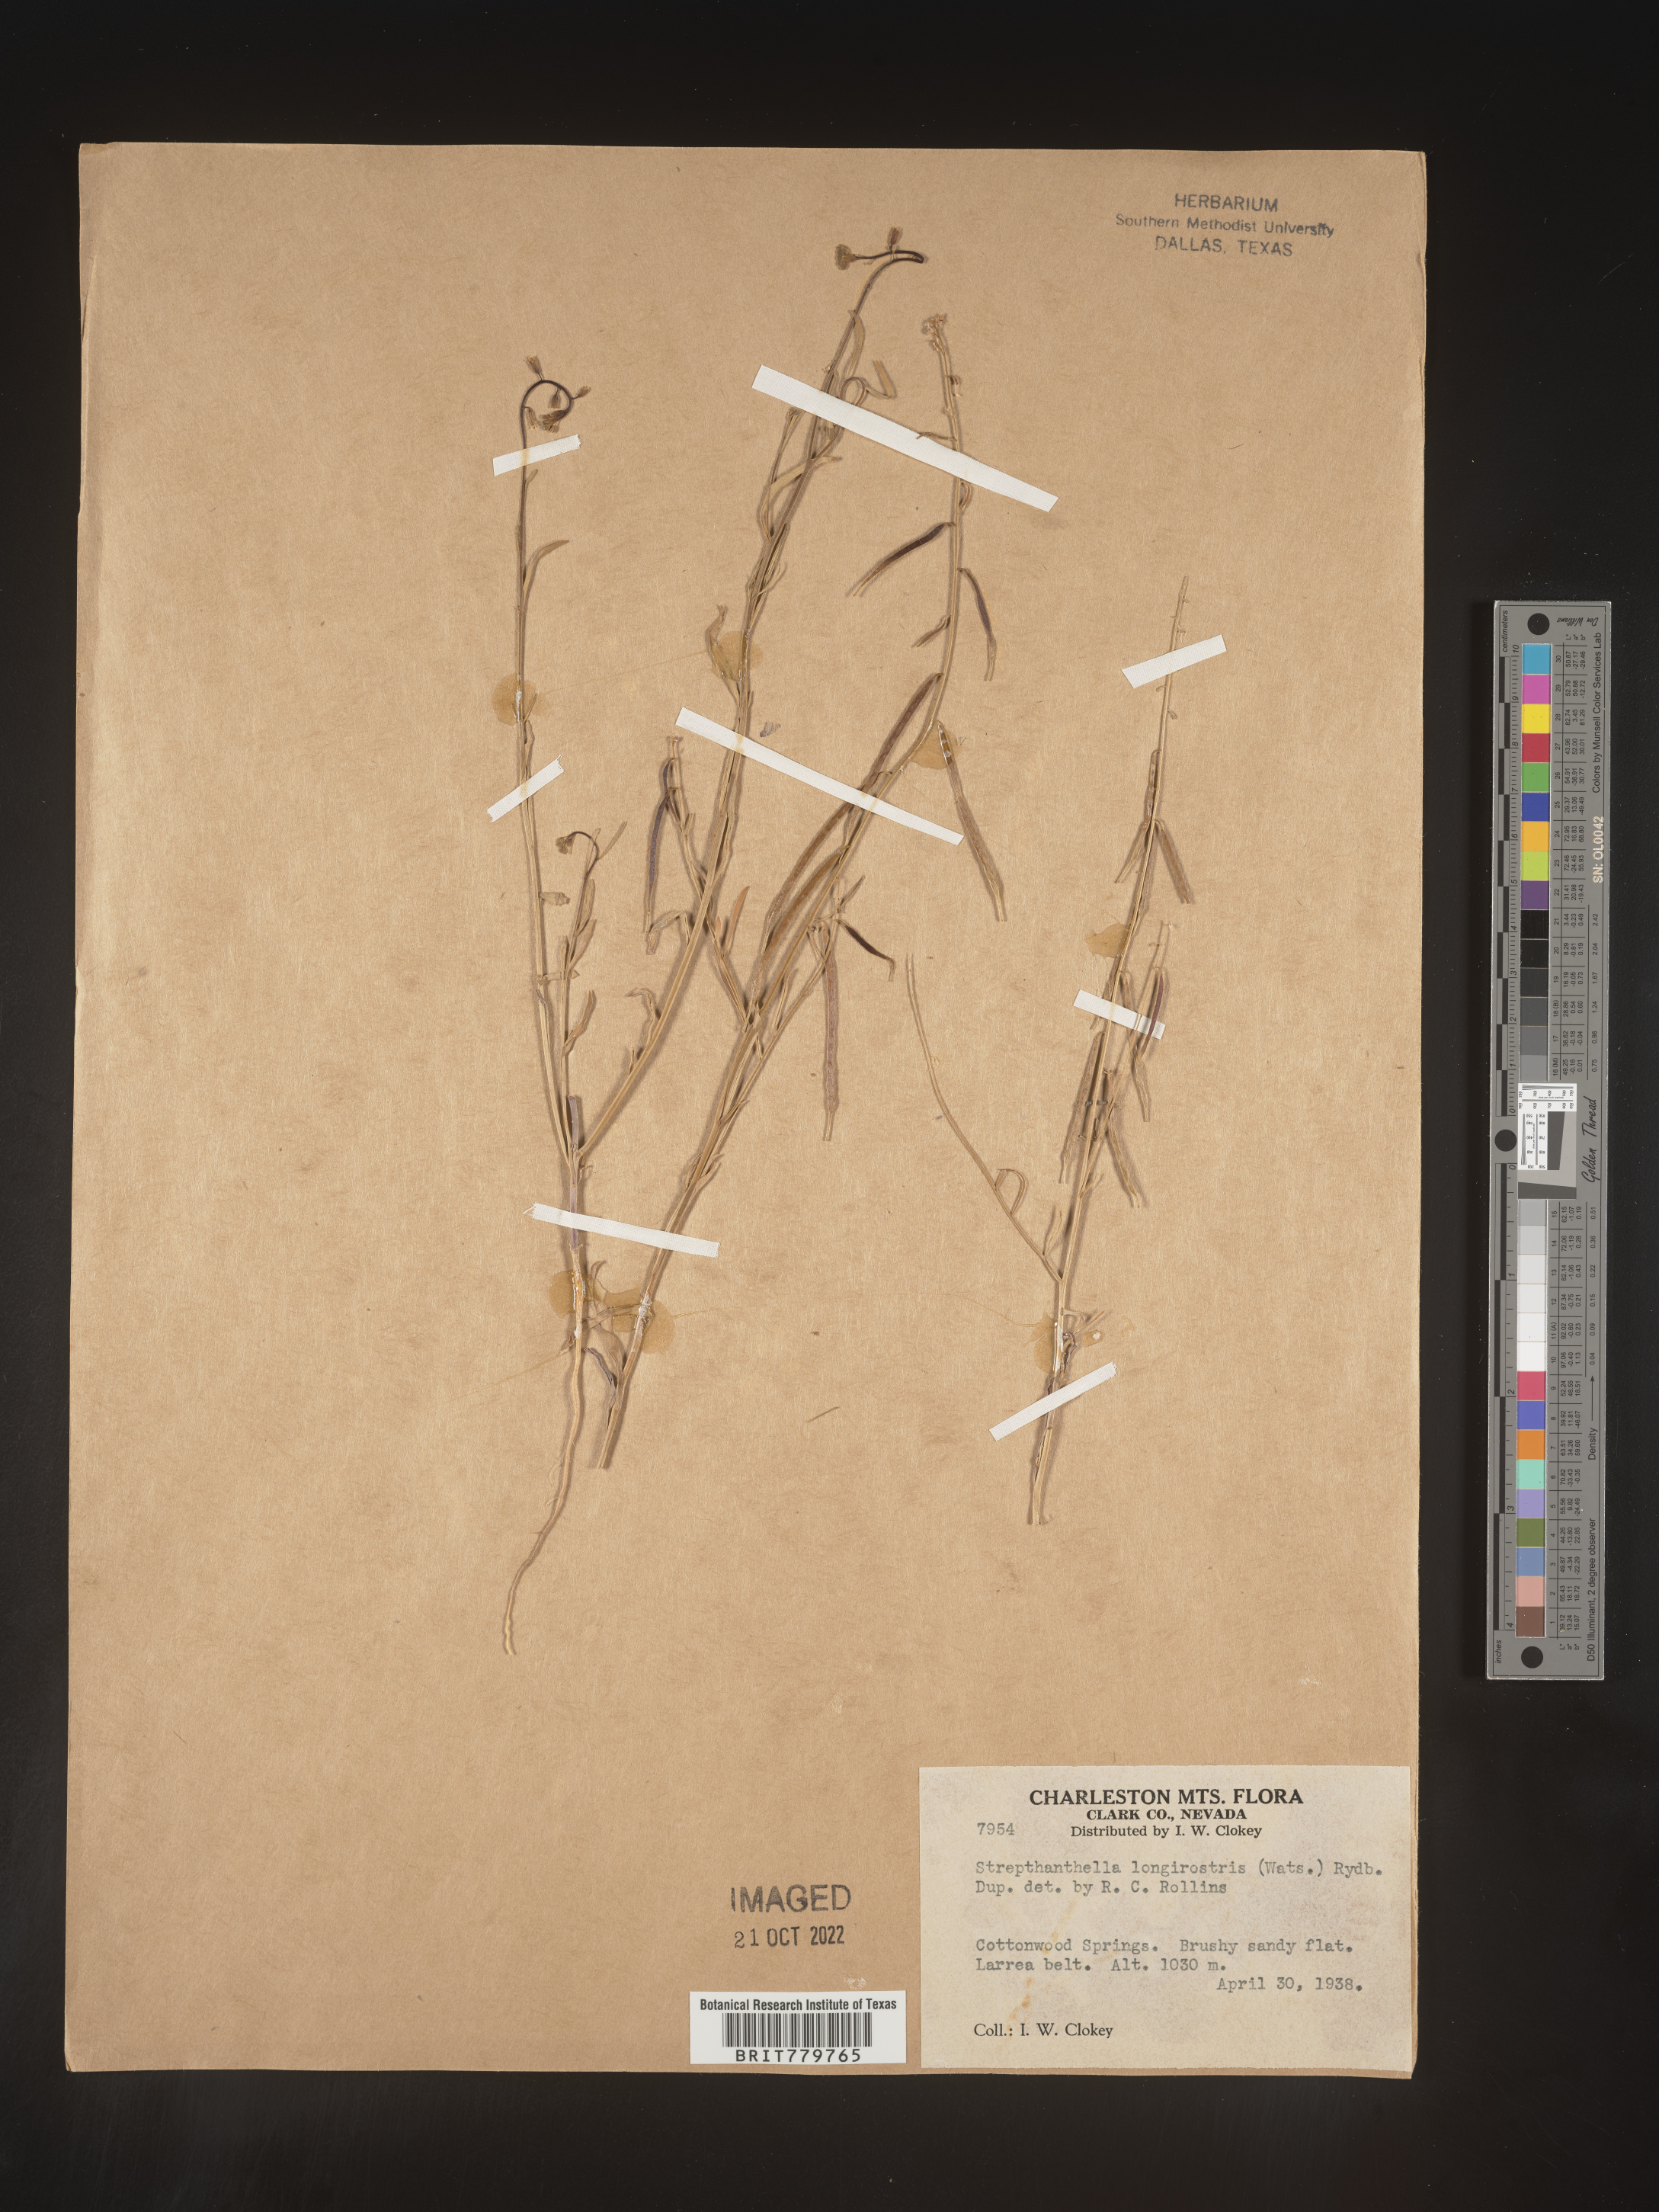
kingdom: Plantae
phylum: Tracheophyta
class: Magnoliopsida
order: Brassicales
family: Brassicaceae
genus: Streptanthus
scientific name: Streptanthus
